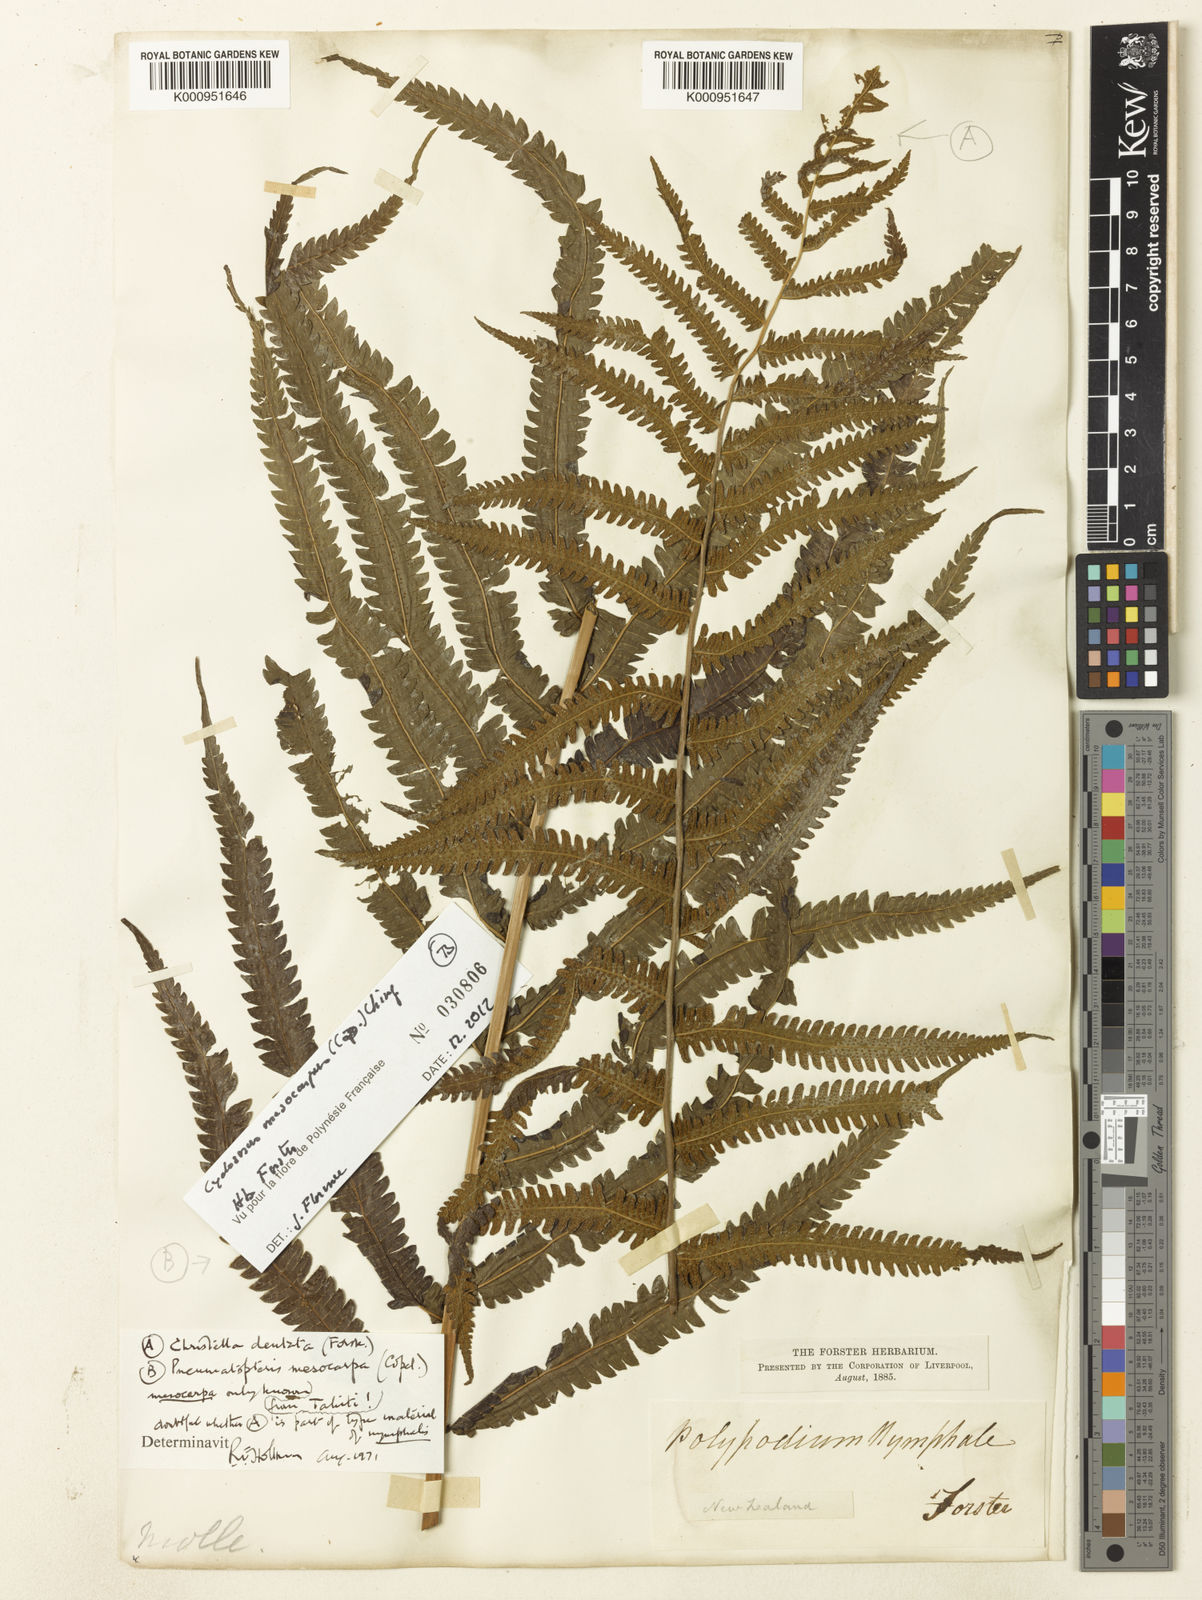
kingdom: Plantae
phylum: Tracheophyta
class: Polypodiopsida
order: Polypodiales
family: Thelypteridaceae
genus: Christella
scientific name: Christella dentata
